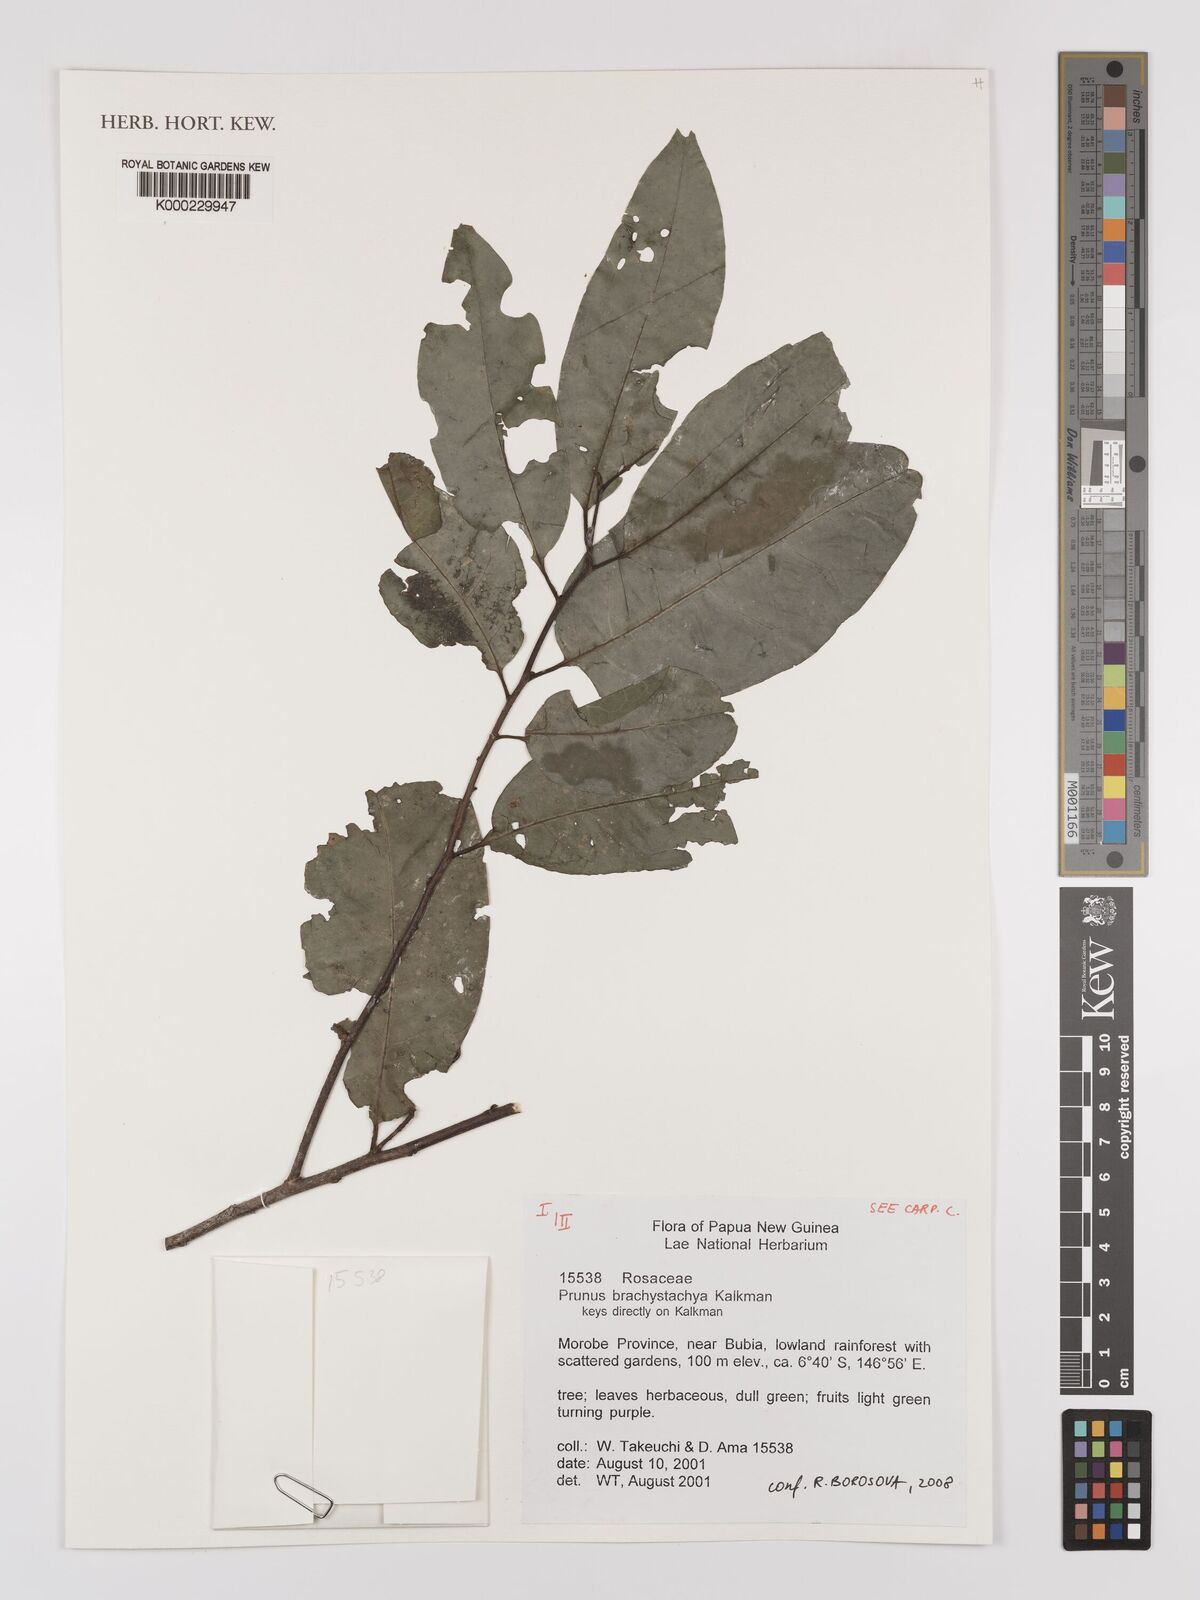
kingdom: Plantae
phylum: Tracheophyta
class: Magnoliopsida
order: Rosales
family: Rosaceae
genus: Prunus
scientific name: Prunus brachystachya
